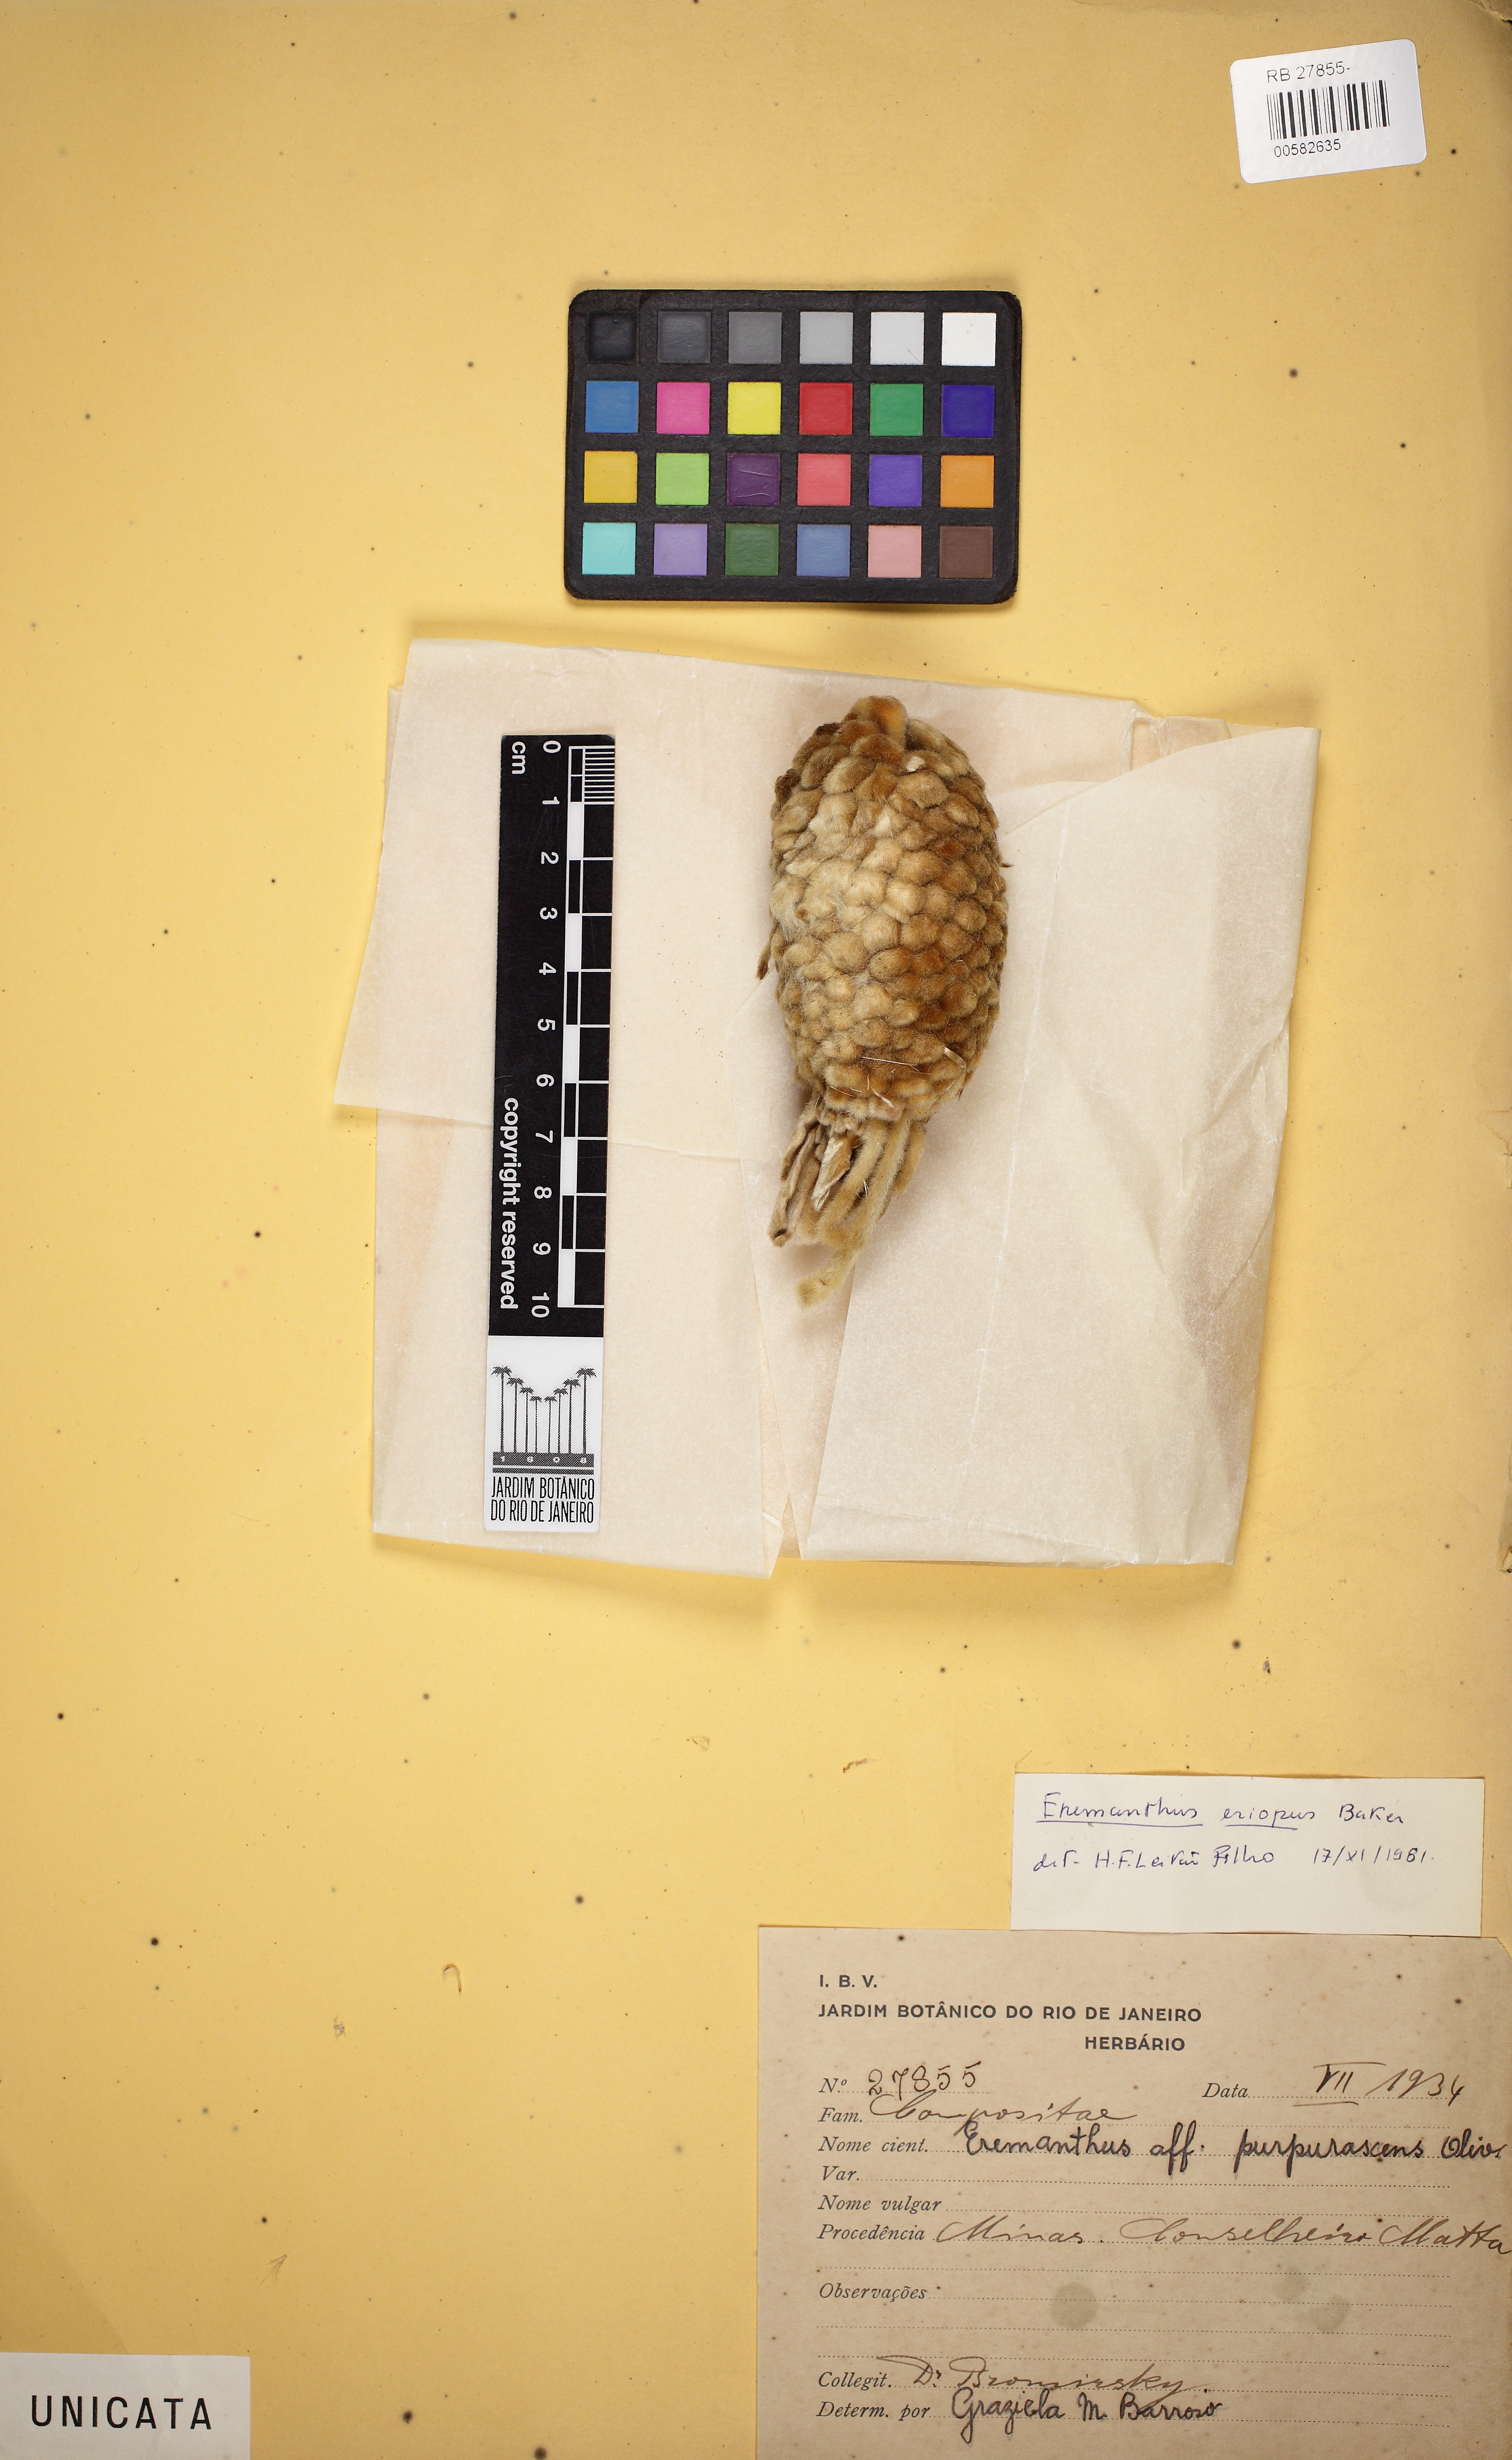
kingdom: Plantae
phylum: Tracheophyta
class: Magnoliopsida
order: Asterales
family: Asteraceae
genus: Prestelia
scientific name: Prestelia eriopus
